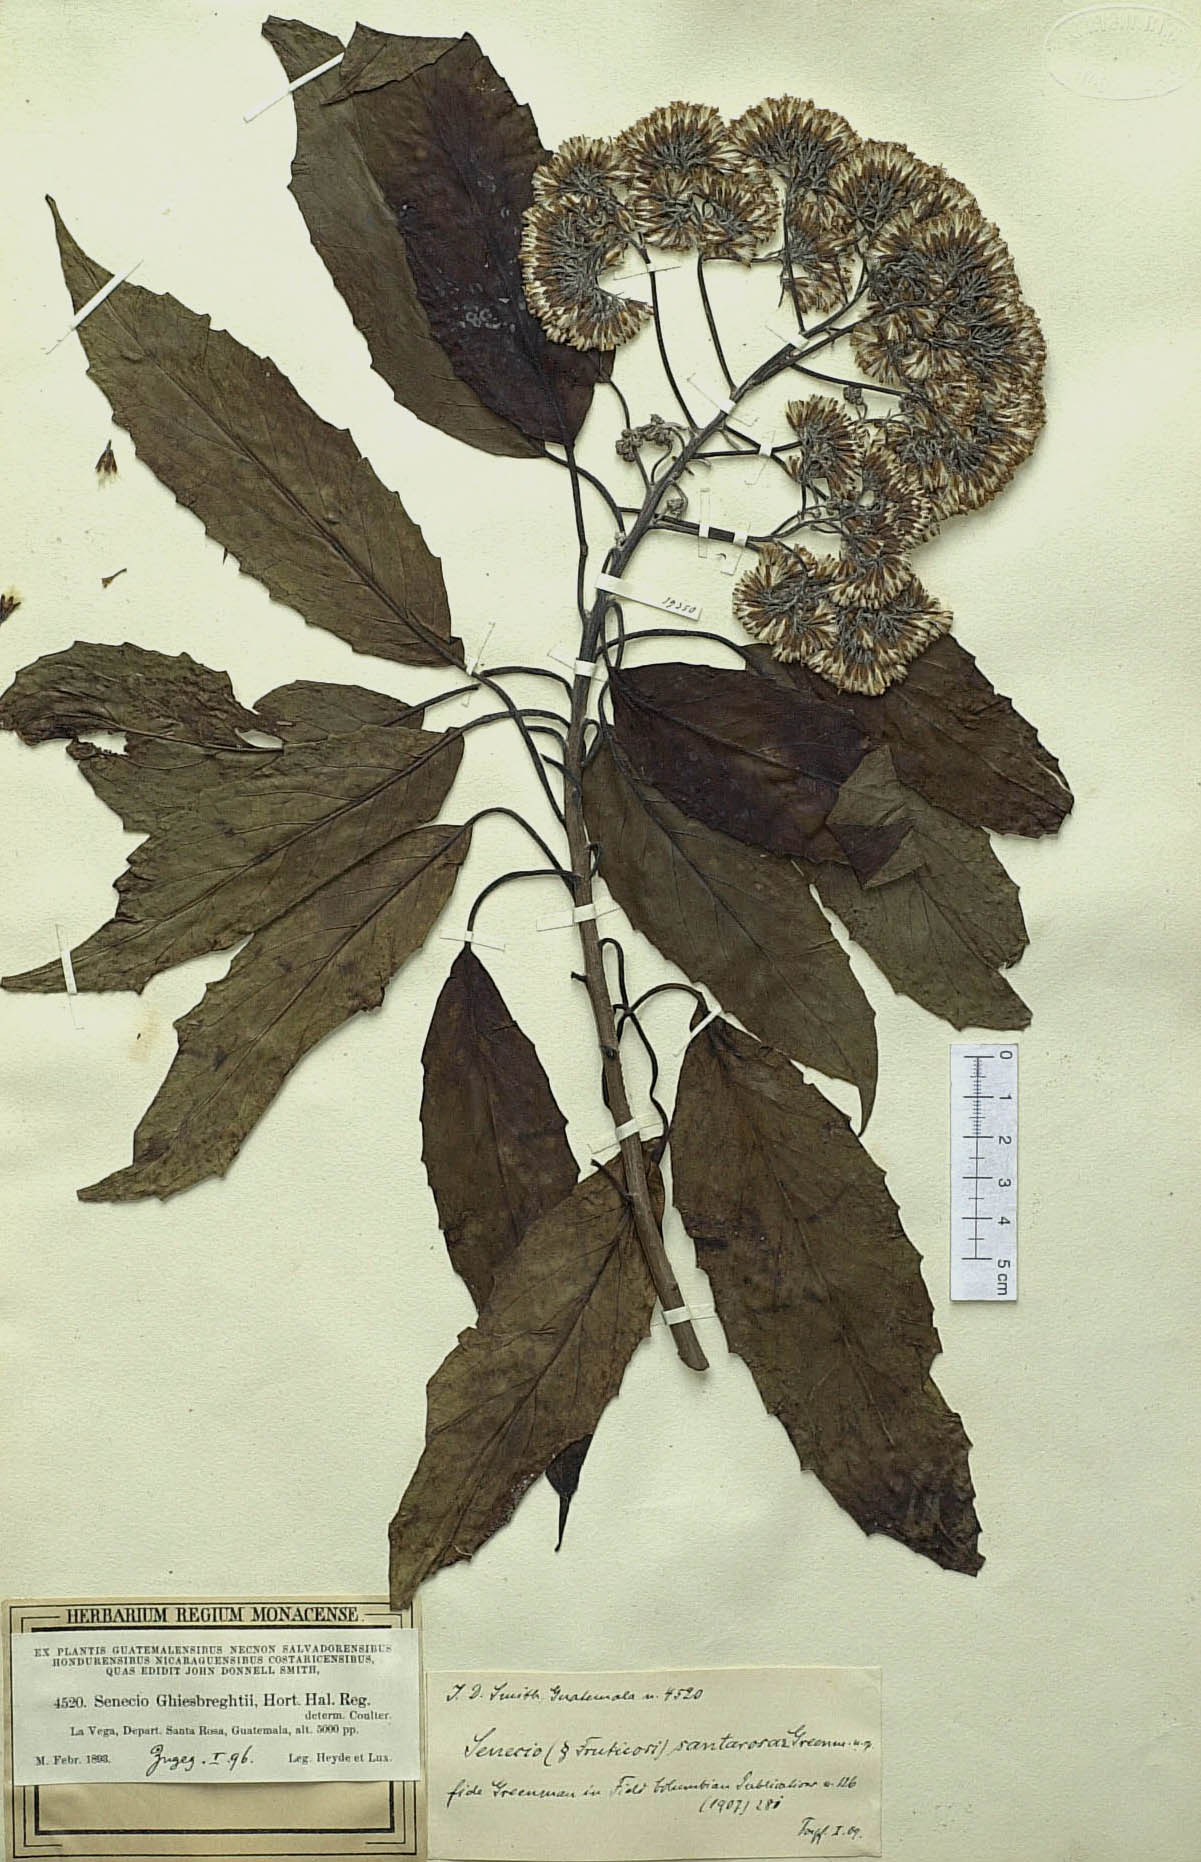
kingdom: Plantae
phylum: Tracheophyta
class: Magnoliopsida
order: Asterales
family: Asteraceae
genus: Roldana
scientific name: Roldana schaffneri
